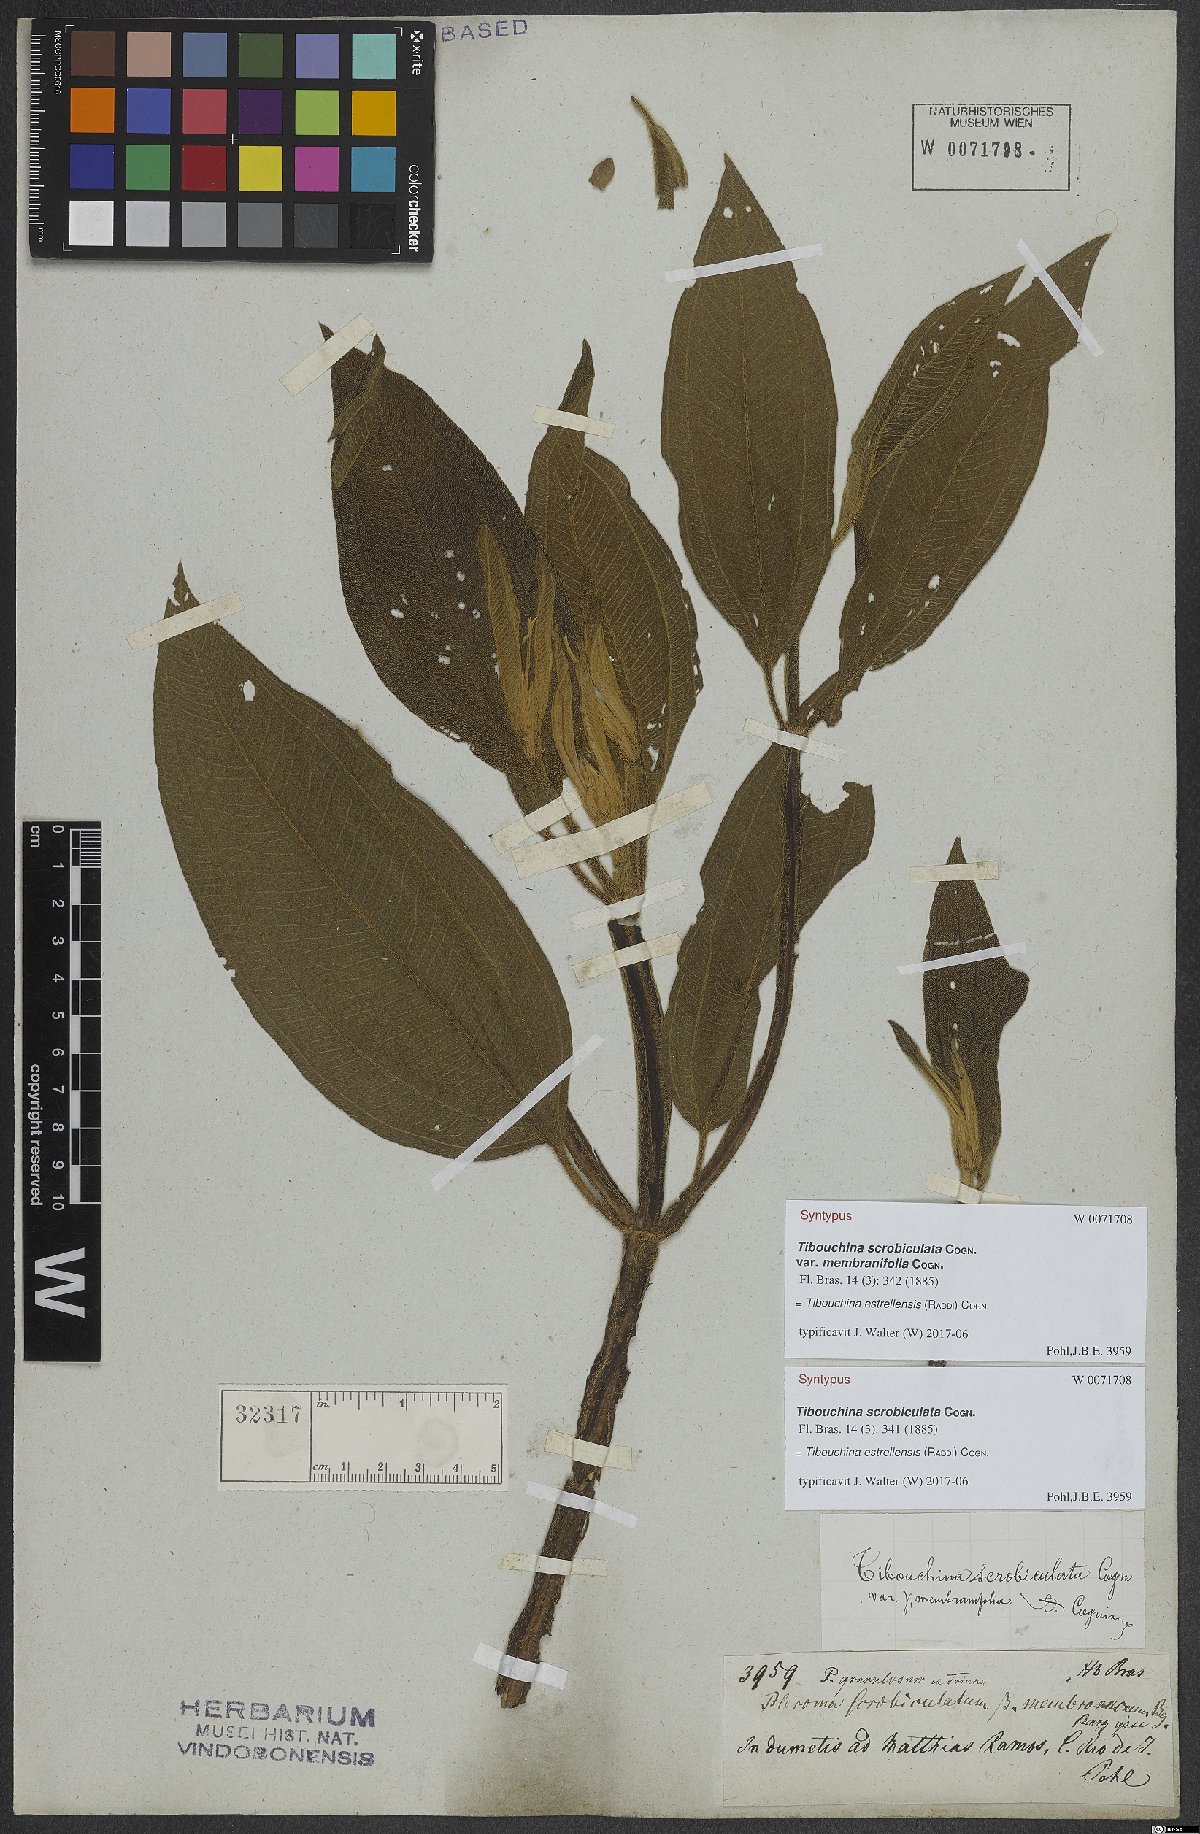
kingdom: Plantae
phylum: Tracheophyta
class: Magnoliopsida
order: Myrtales
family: Melastomataceae
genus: Pleroma
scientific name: Pleroma estrellense
